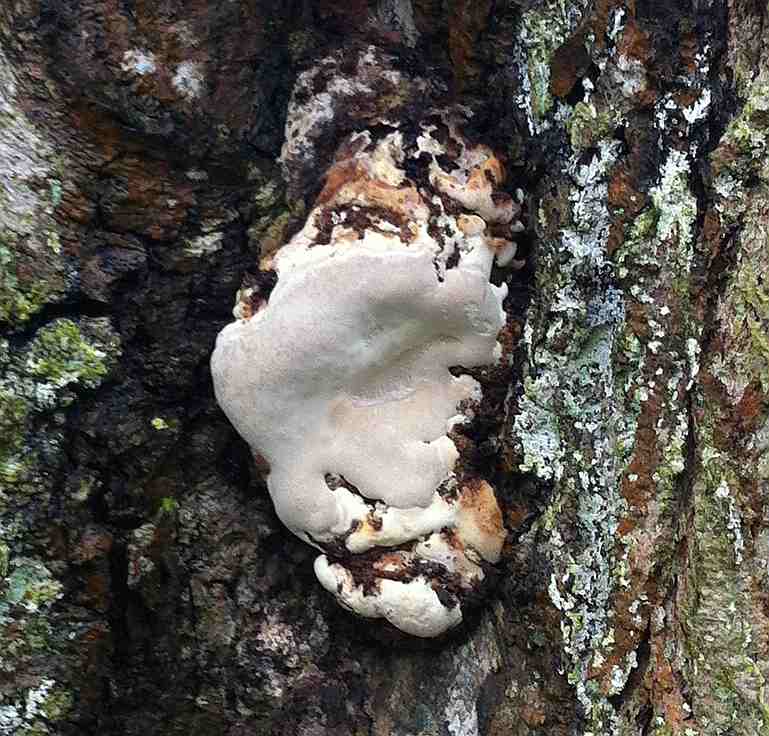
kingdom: Fungi
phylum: Basidiomycota
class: Agaricomycetes
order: Polyporales
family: Polyporaceae
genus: Ganoderma
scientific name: Ganoderma adspersum
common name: grov lakporesvamp
